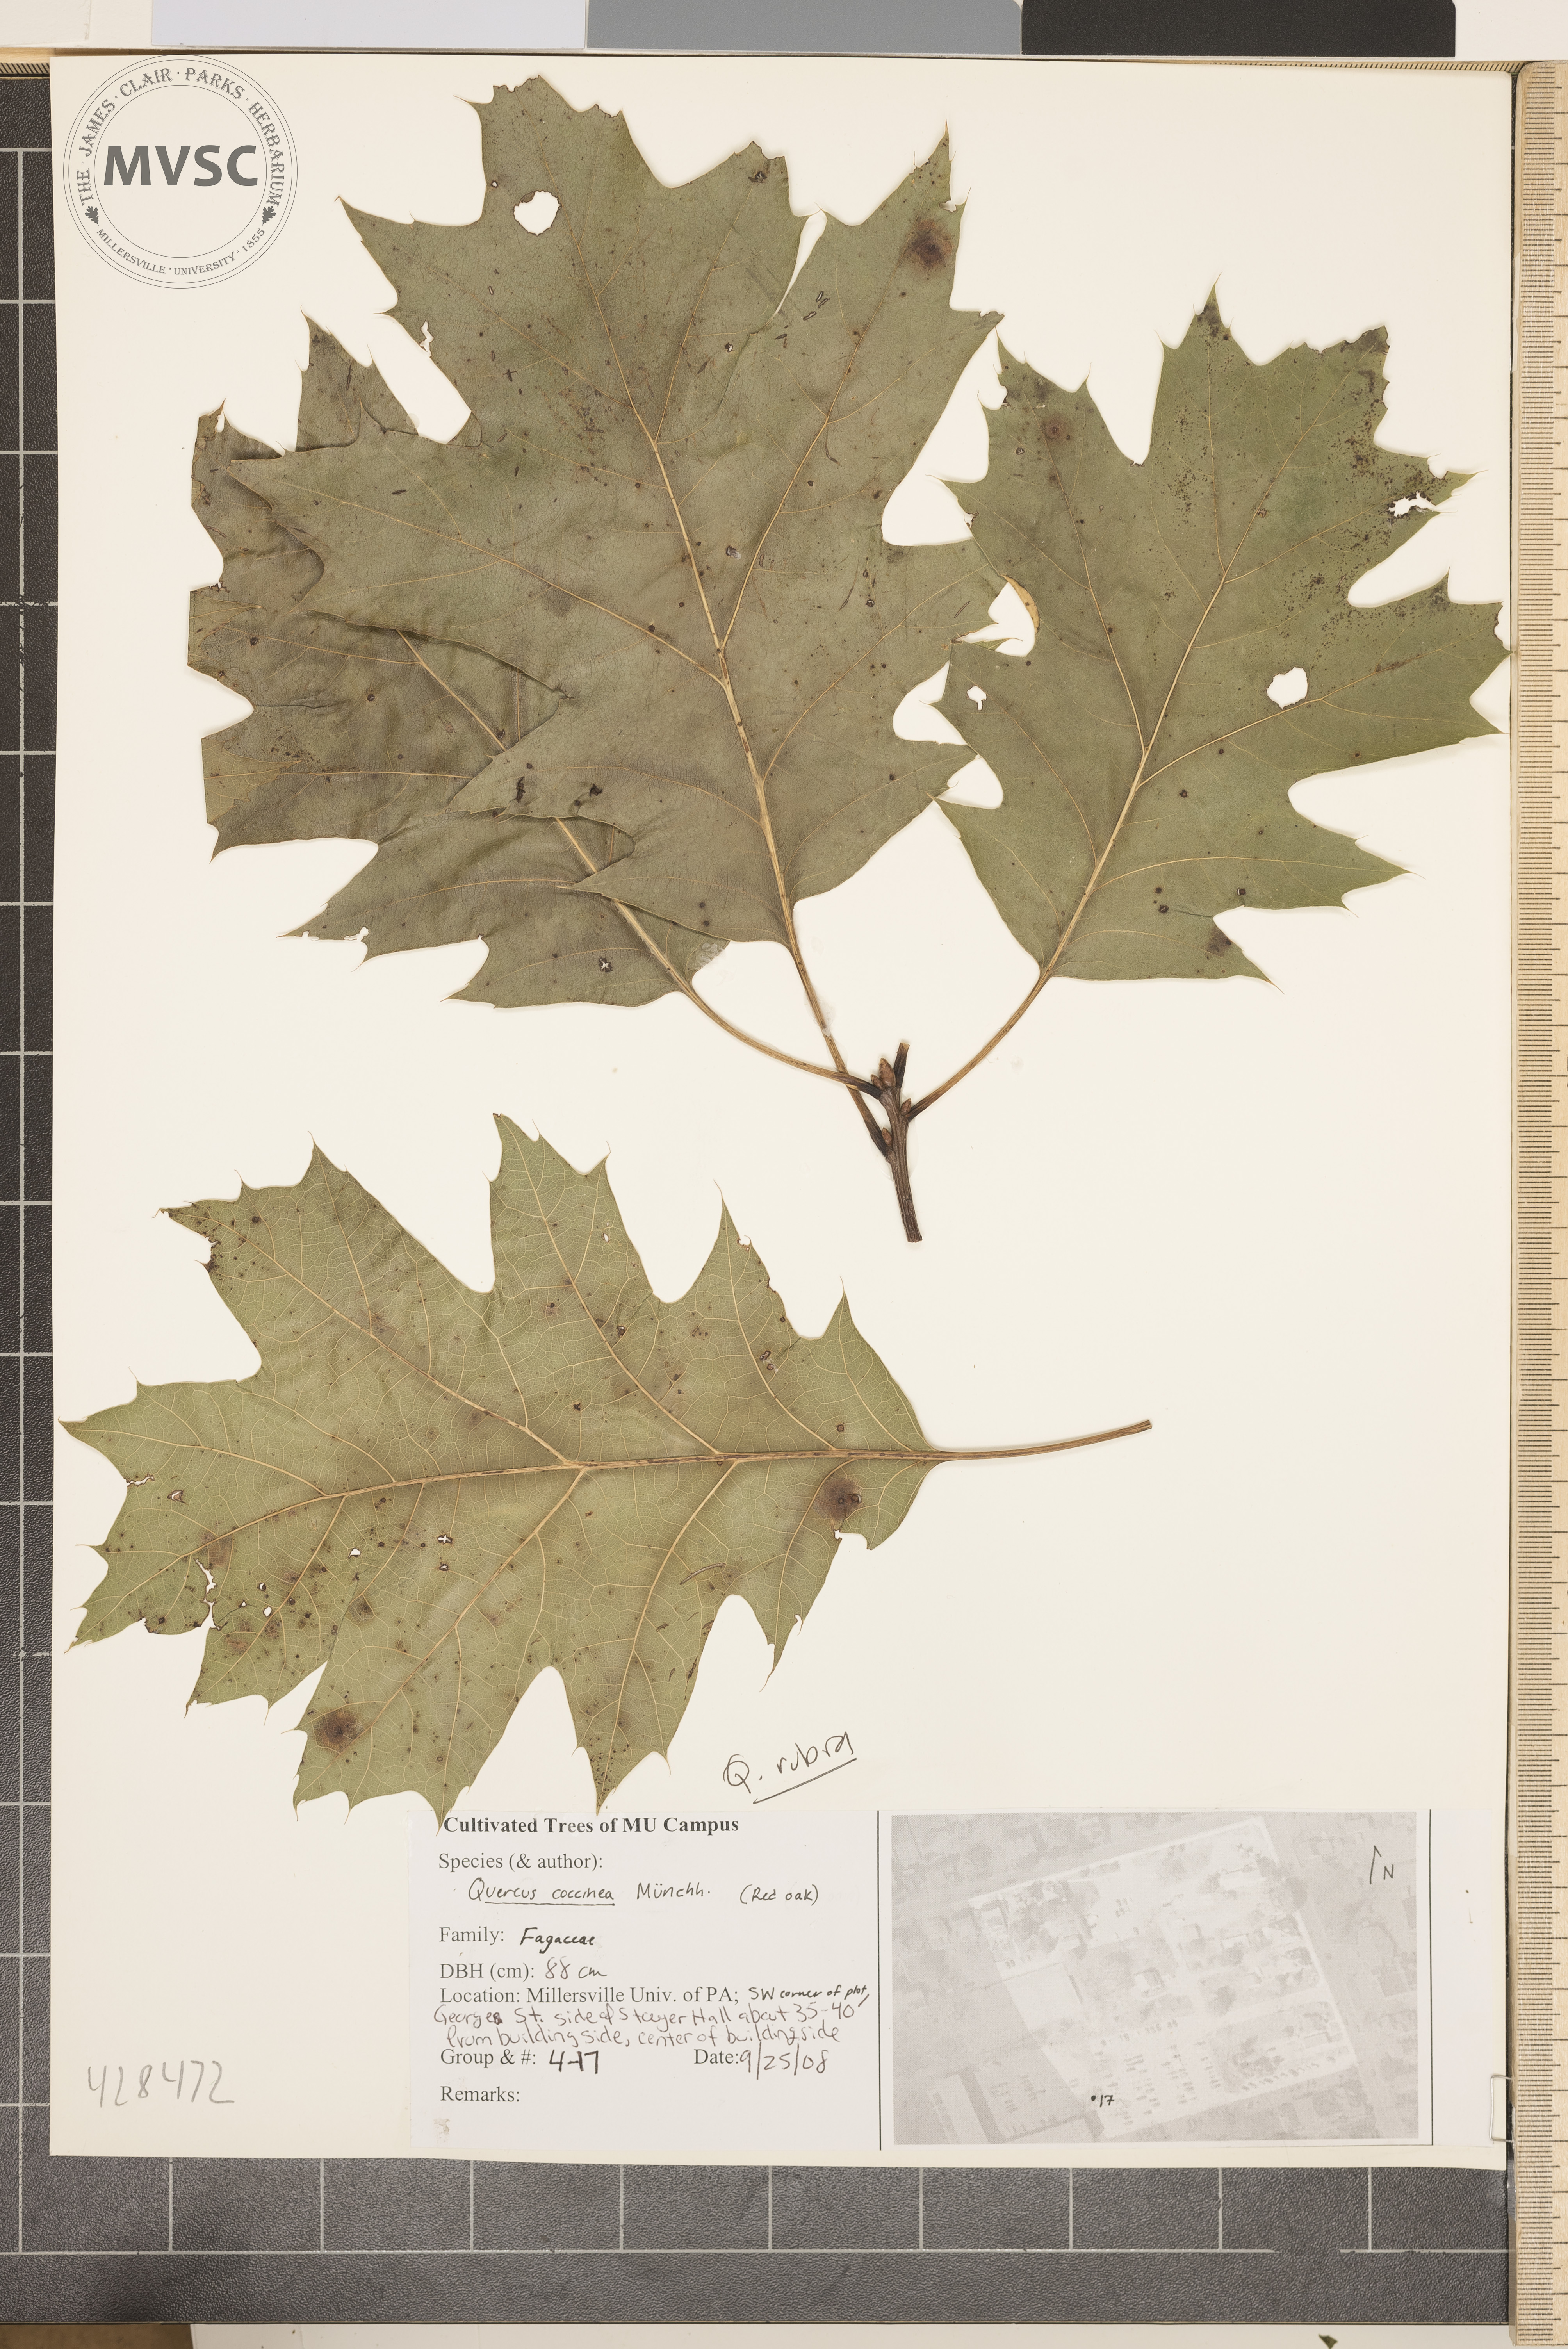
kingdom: Plantae
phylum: Tracheophyta
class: Magnoliopsida
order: Fagales
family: Fagaceae
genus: Quercus
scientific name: Quercus rubra
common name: Red oak
